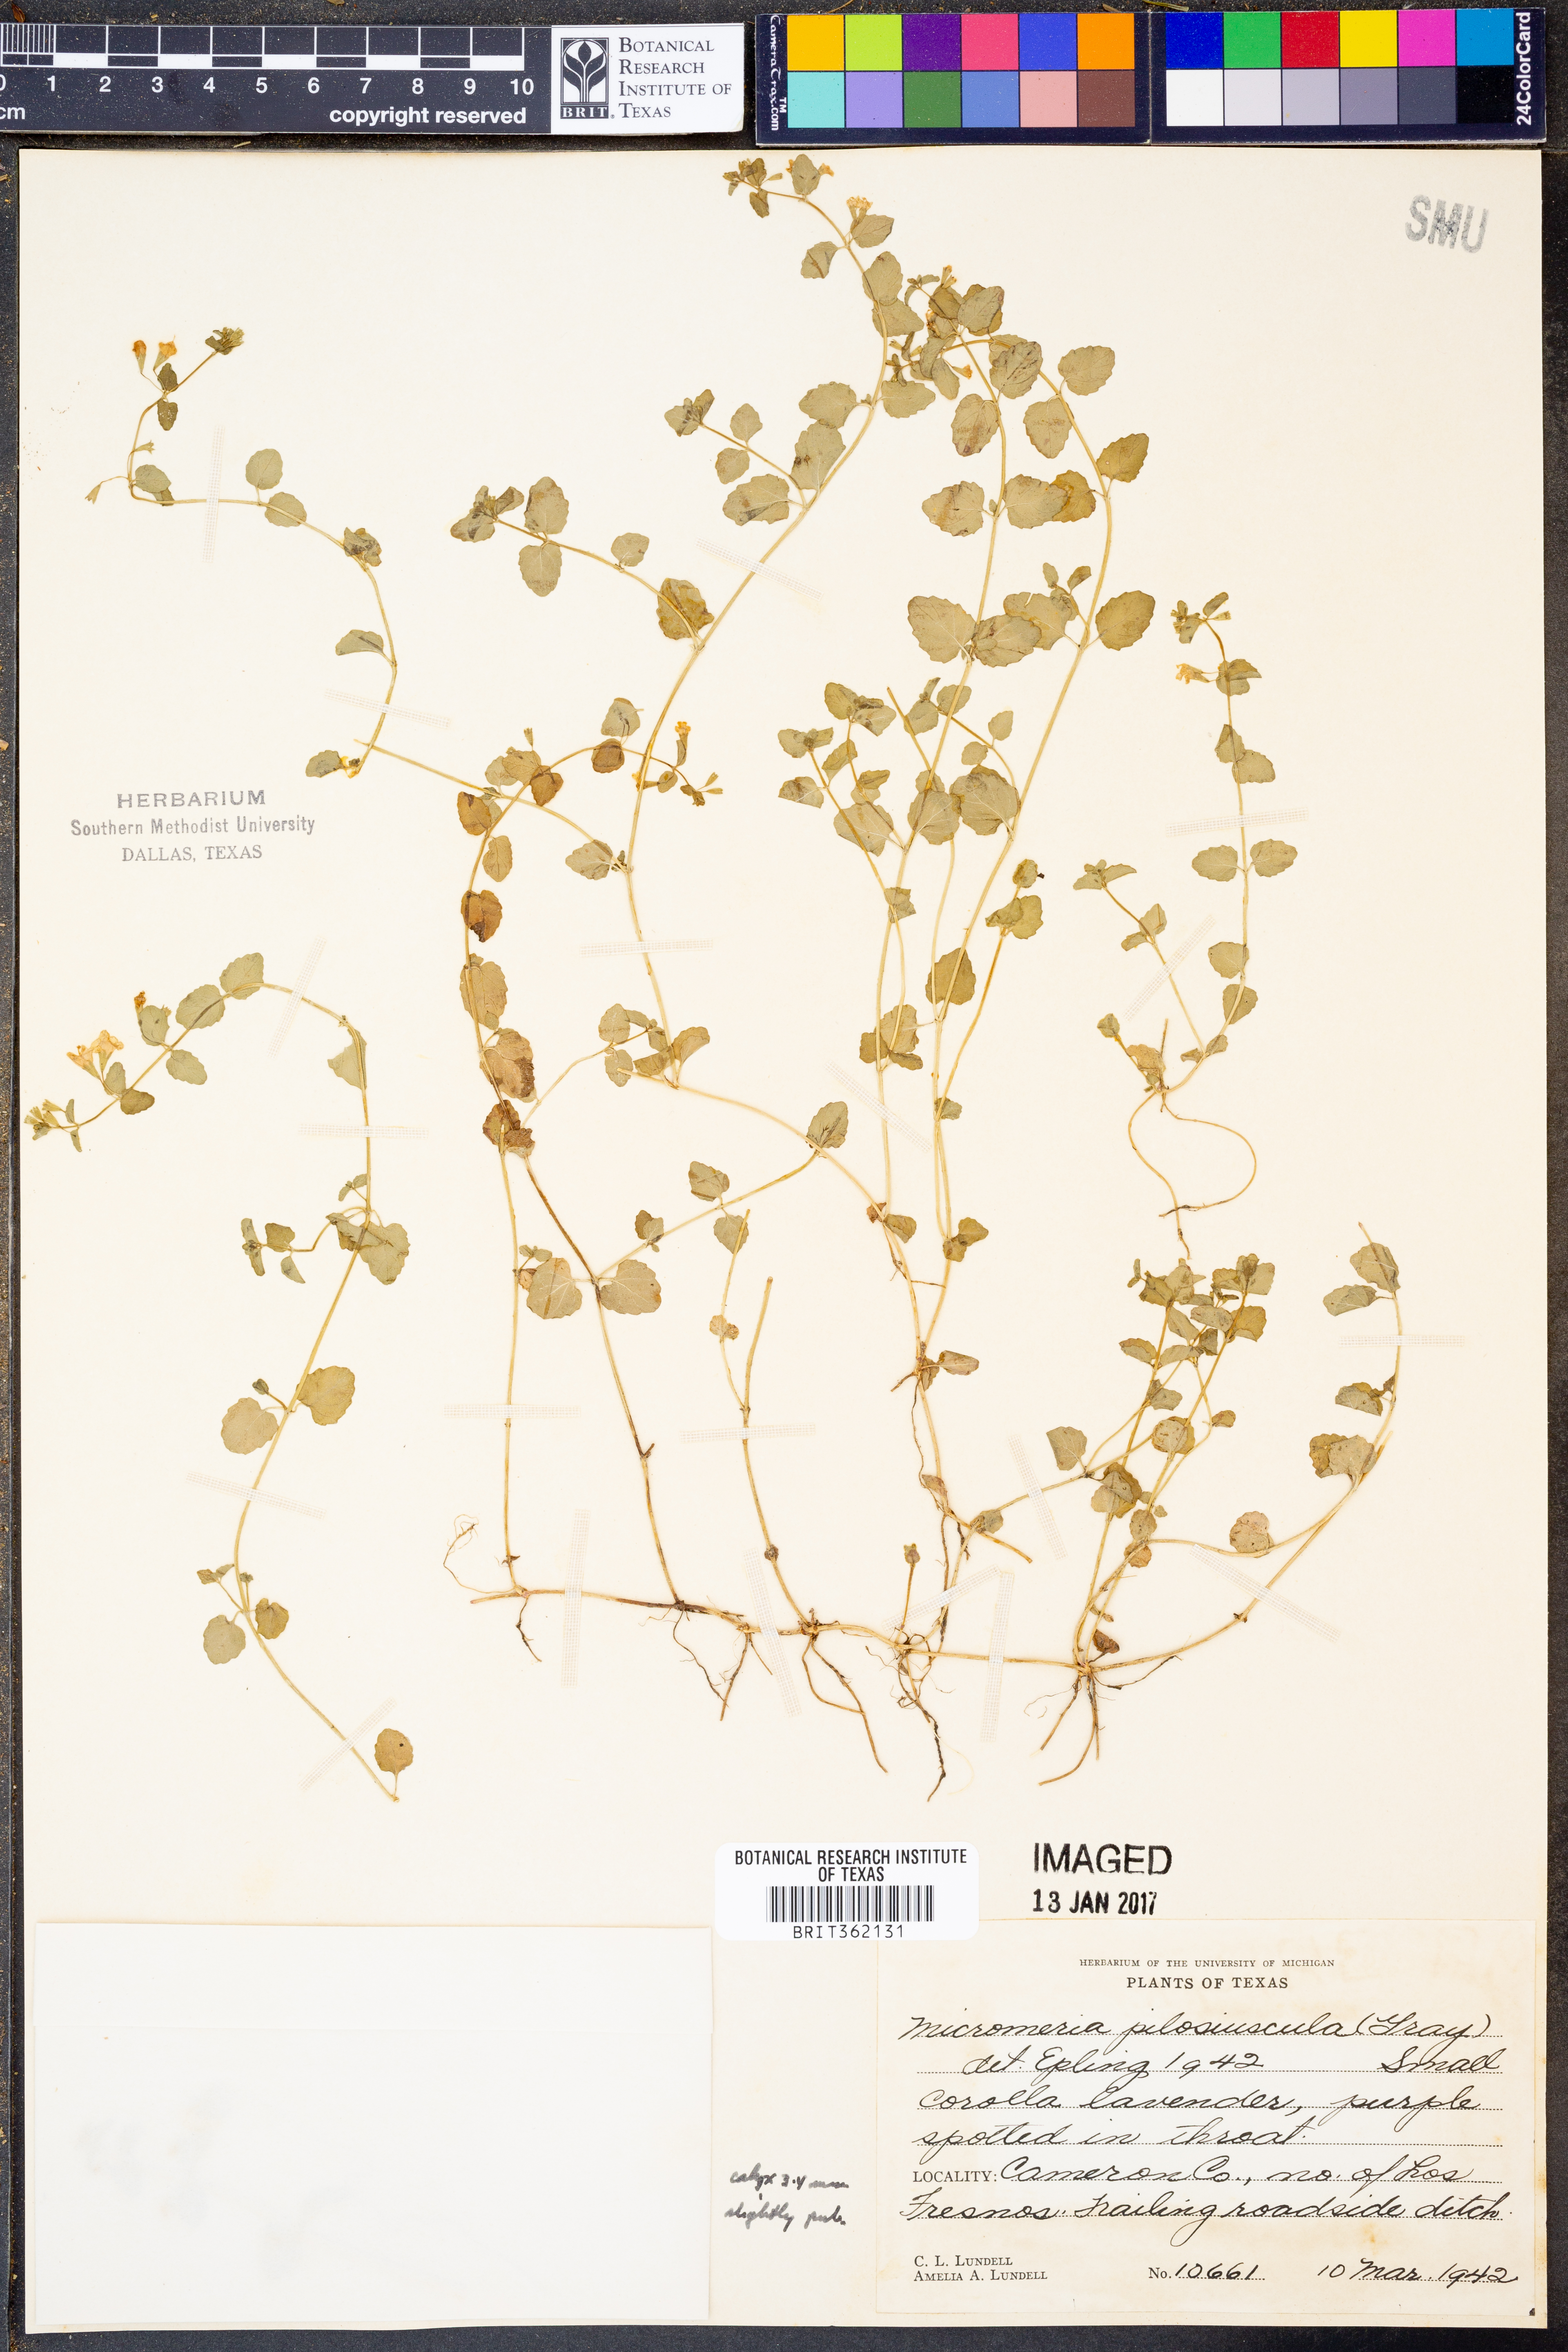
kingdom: Plantae
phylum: Tracheophyta
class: Magnoliopsida
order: Lamiales
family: Lamiaceae
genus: Clinopodium
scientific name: Clinopodium brownei
